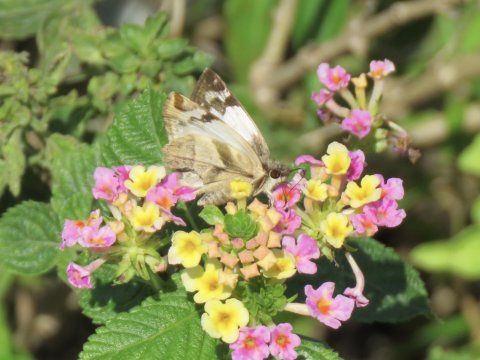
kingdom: Animalia
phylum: Arthropoda
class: Insecta
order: Lepidoptera
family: Hesperiidae
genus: Heliopetes
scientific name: Heliopetes laviana
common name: Laviana White-Skipper
